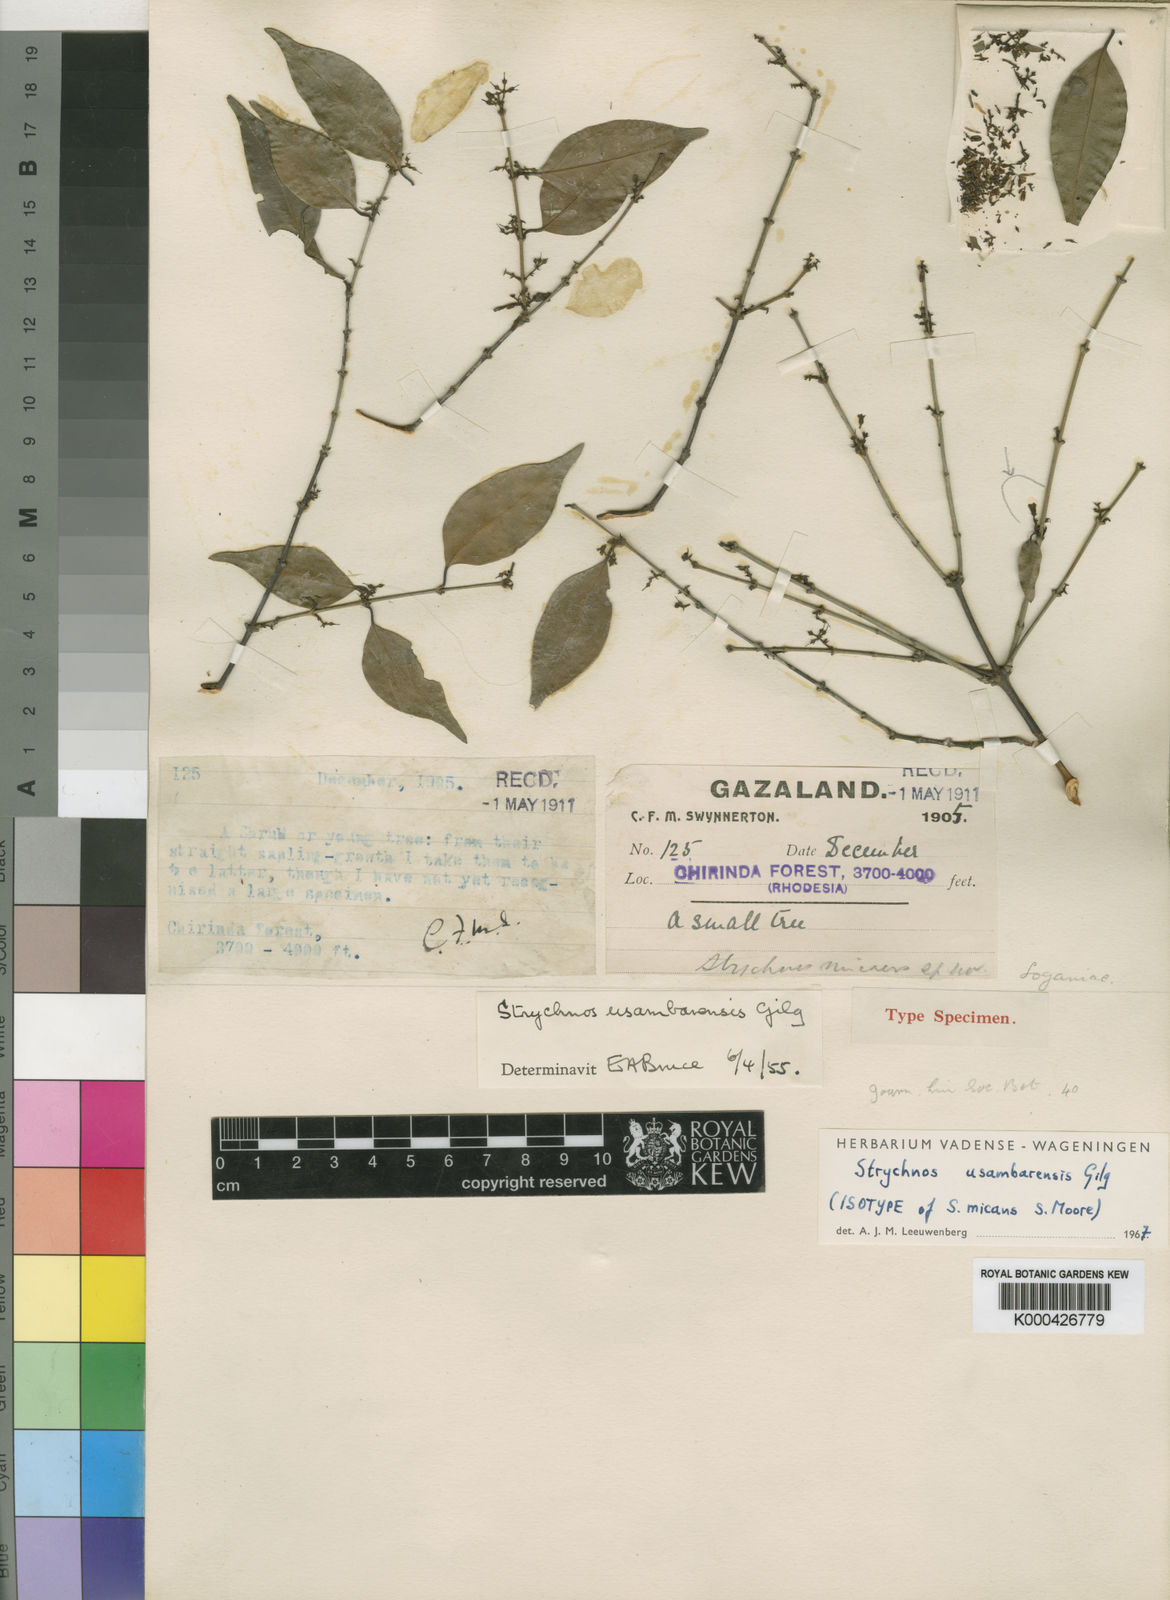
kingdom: Plantae
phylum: Tracheophyta
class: Magnoliopsida
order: Gentianales
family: Loganiaceae
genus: Strychnos
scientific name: Strychnos
